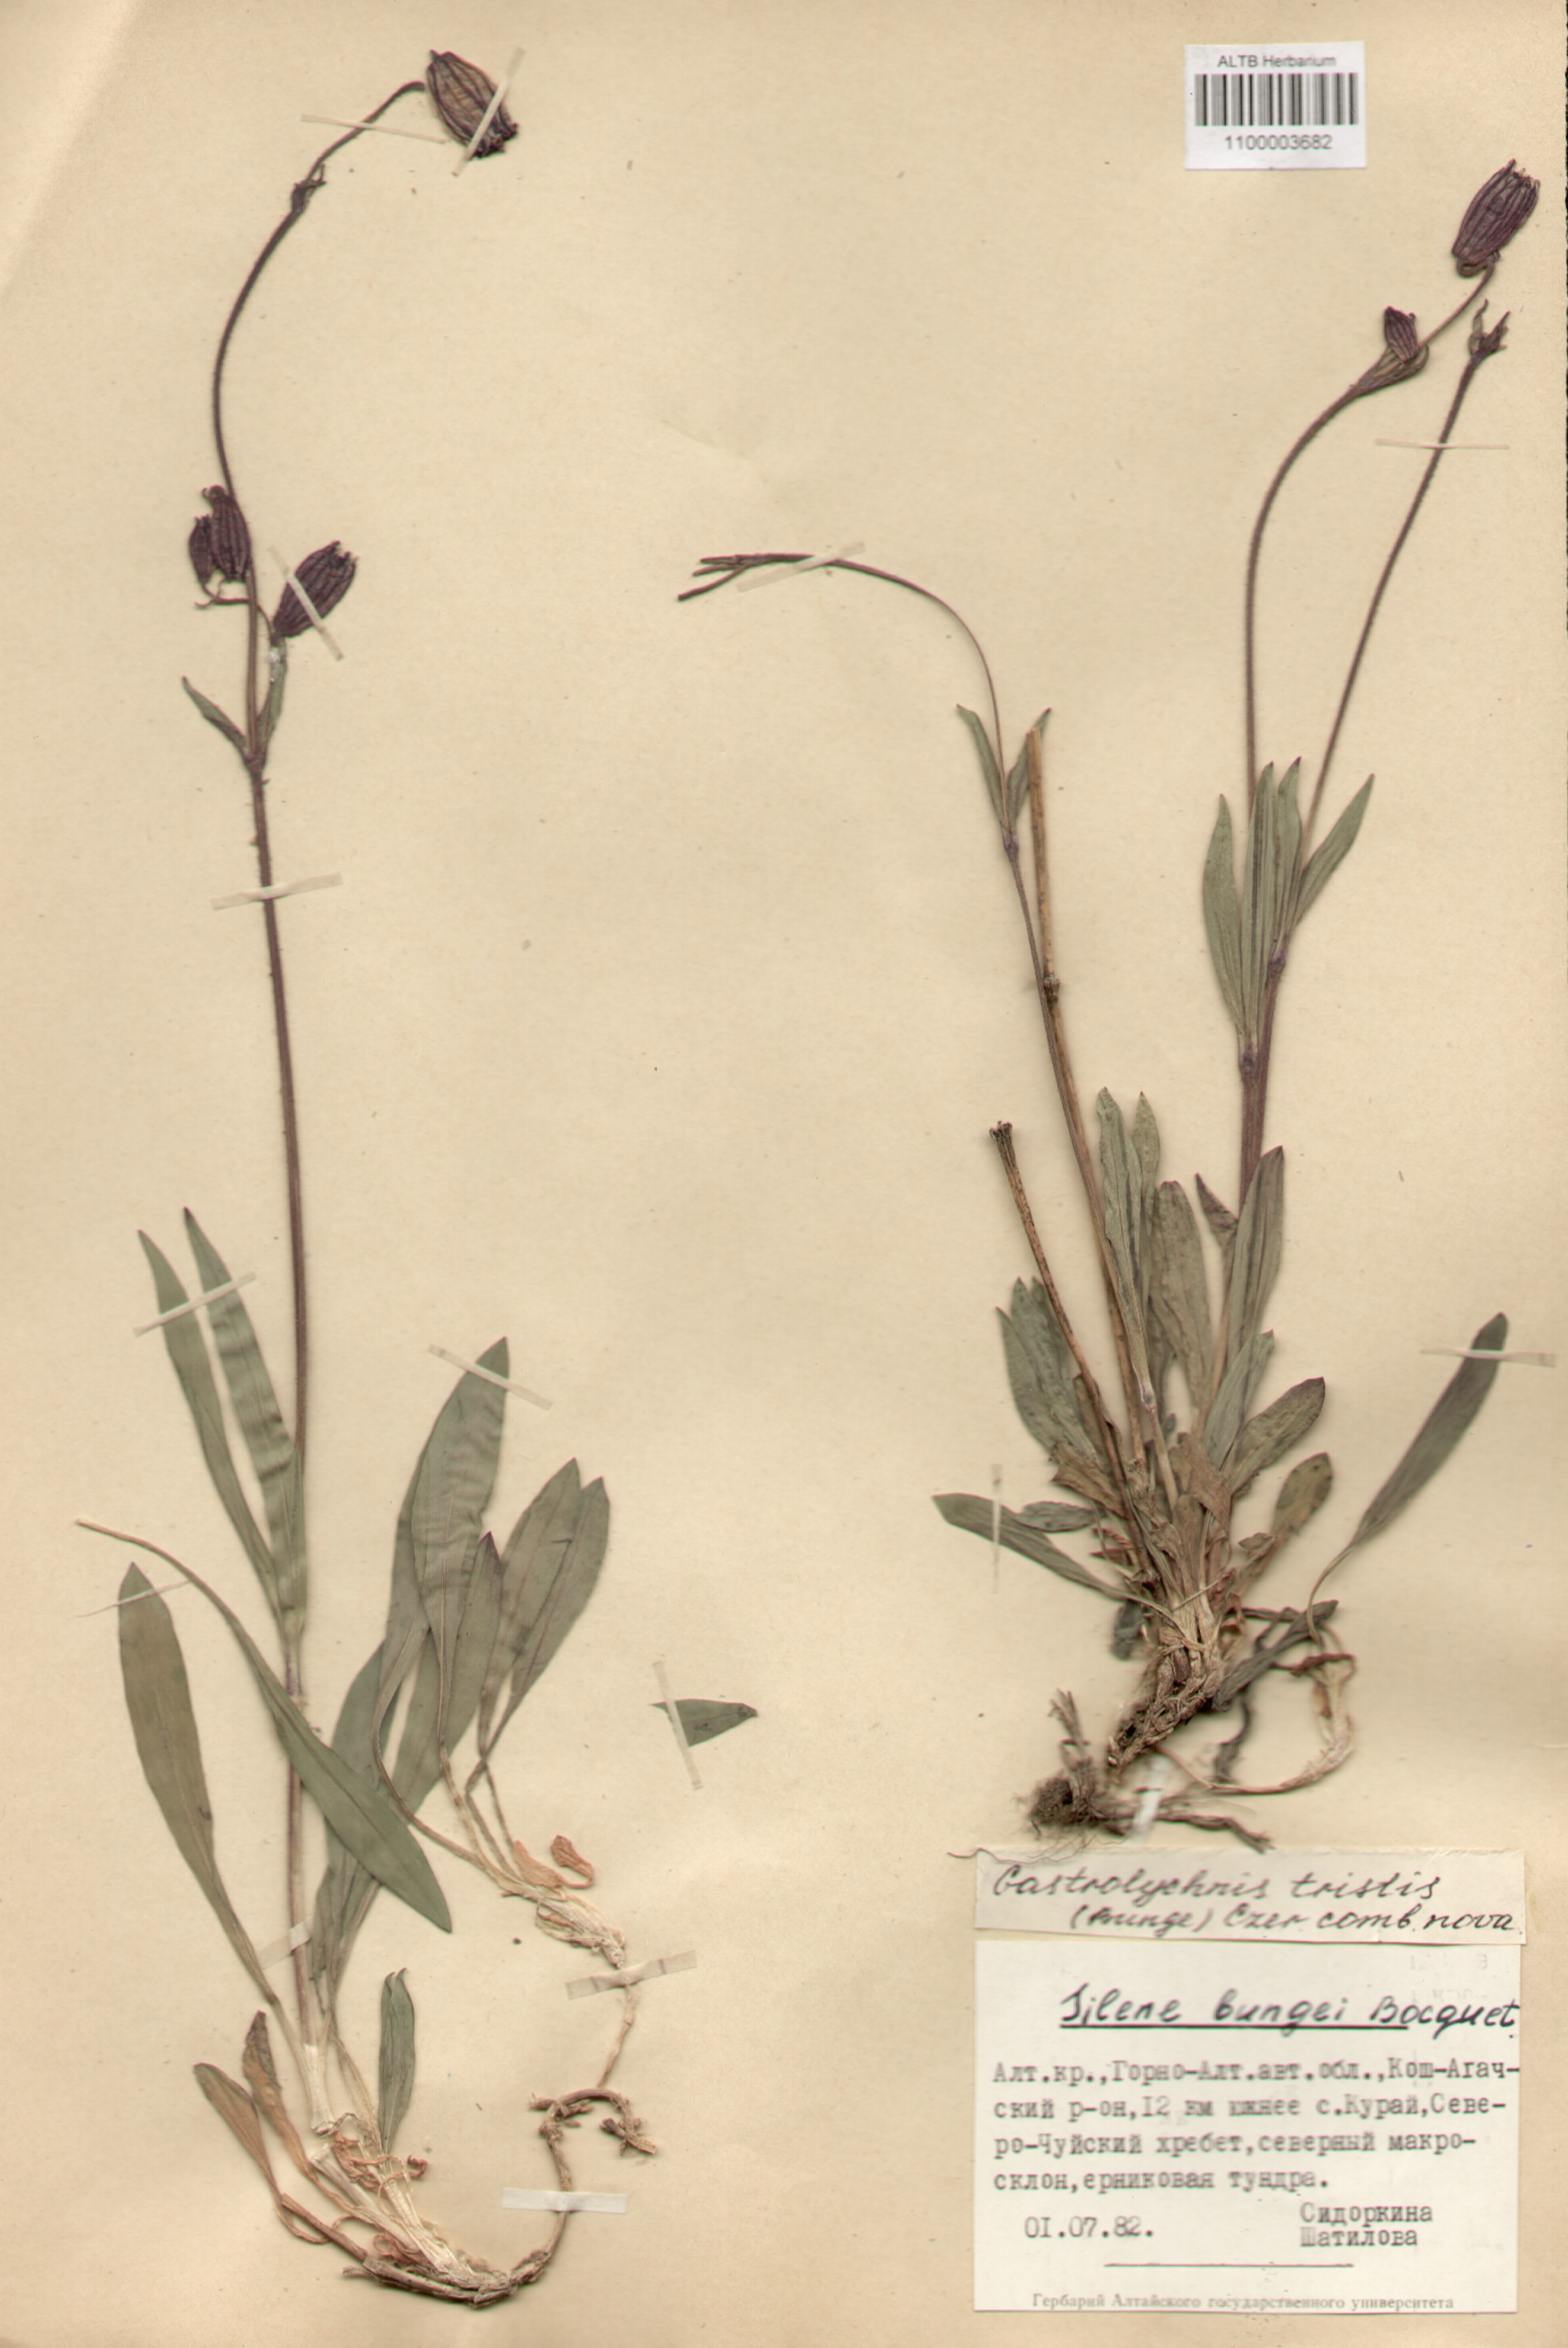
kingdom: Plantae
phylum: Tracheophyta
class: Magnoliopsida
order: Caryophyllales
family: Caryophyllaceae
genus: Silene
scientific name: Silene bungei
